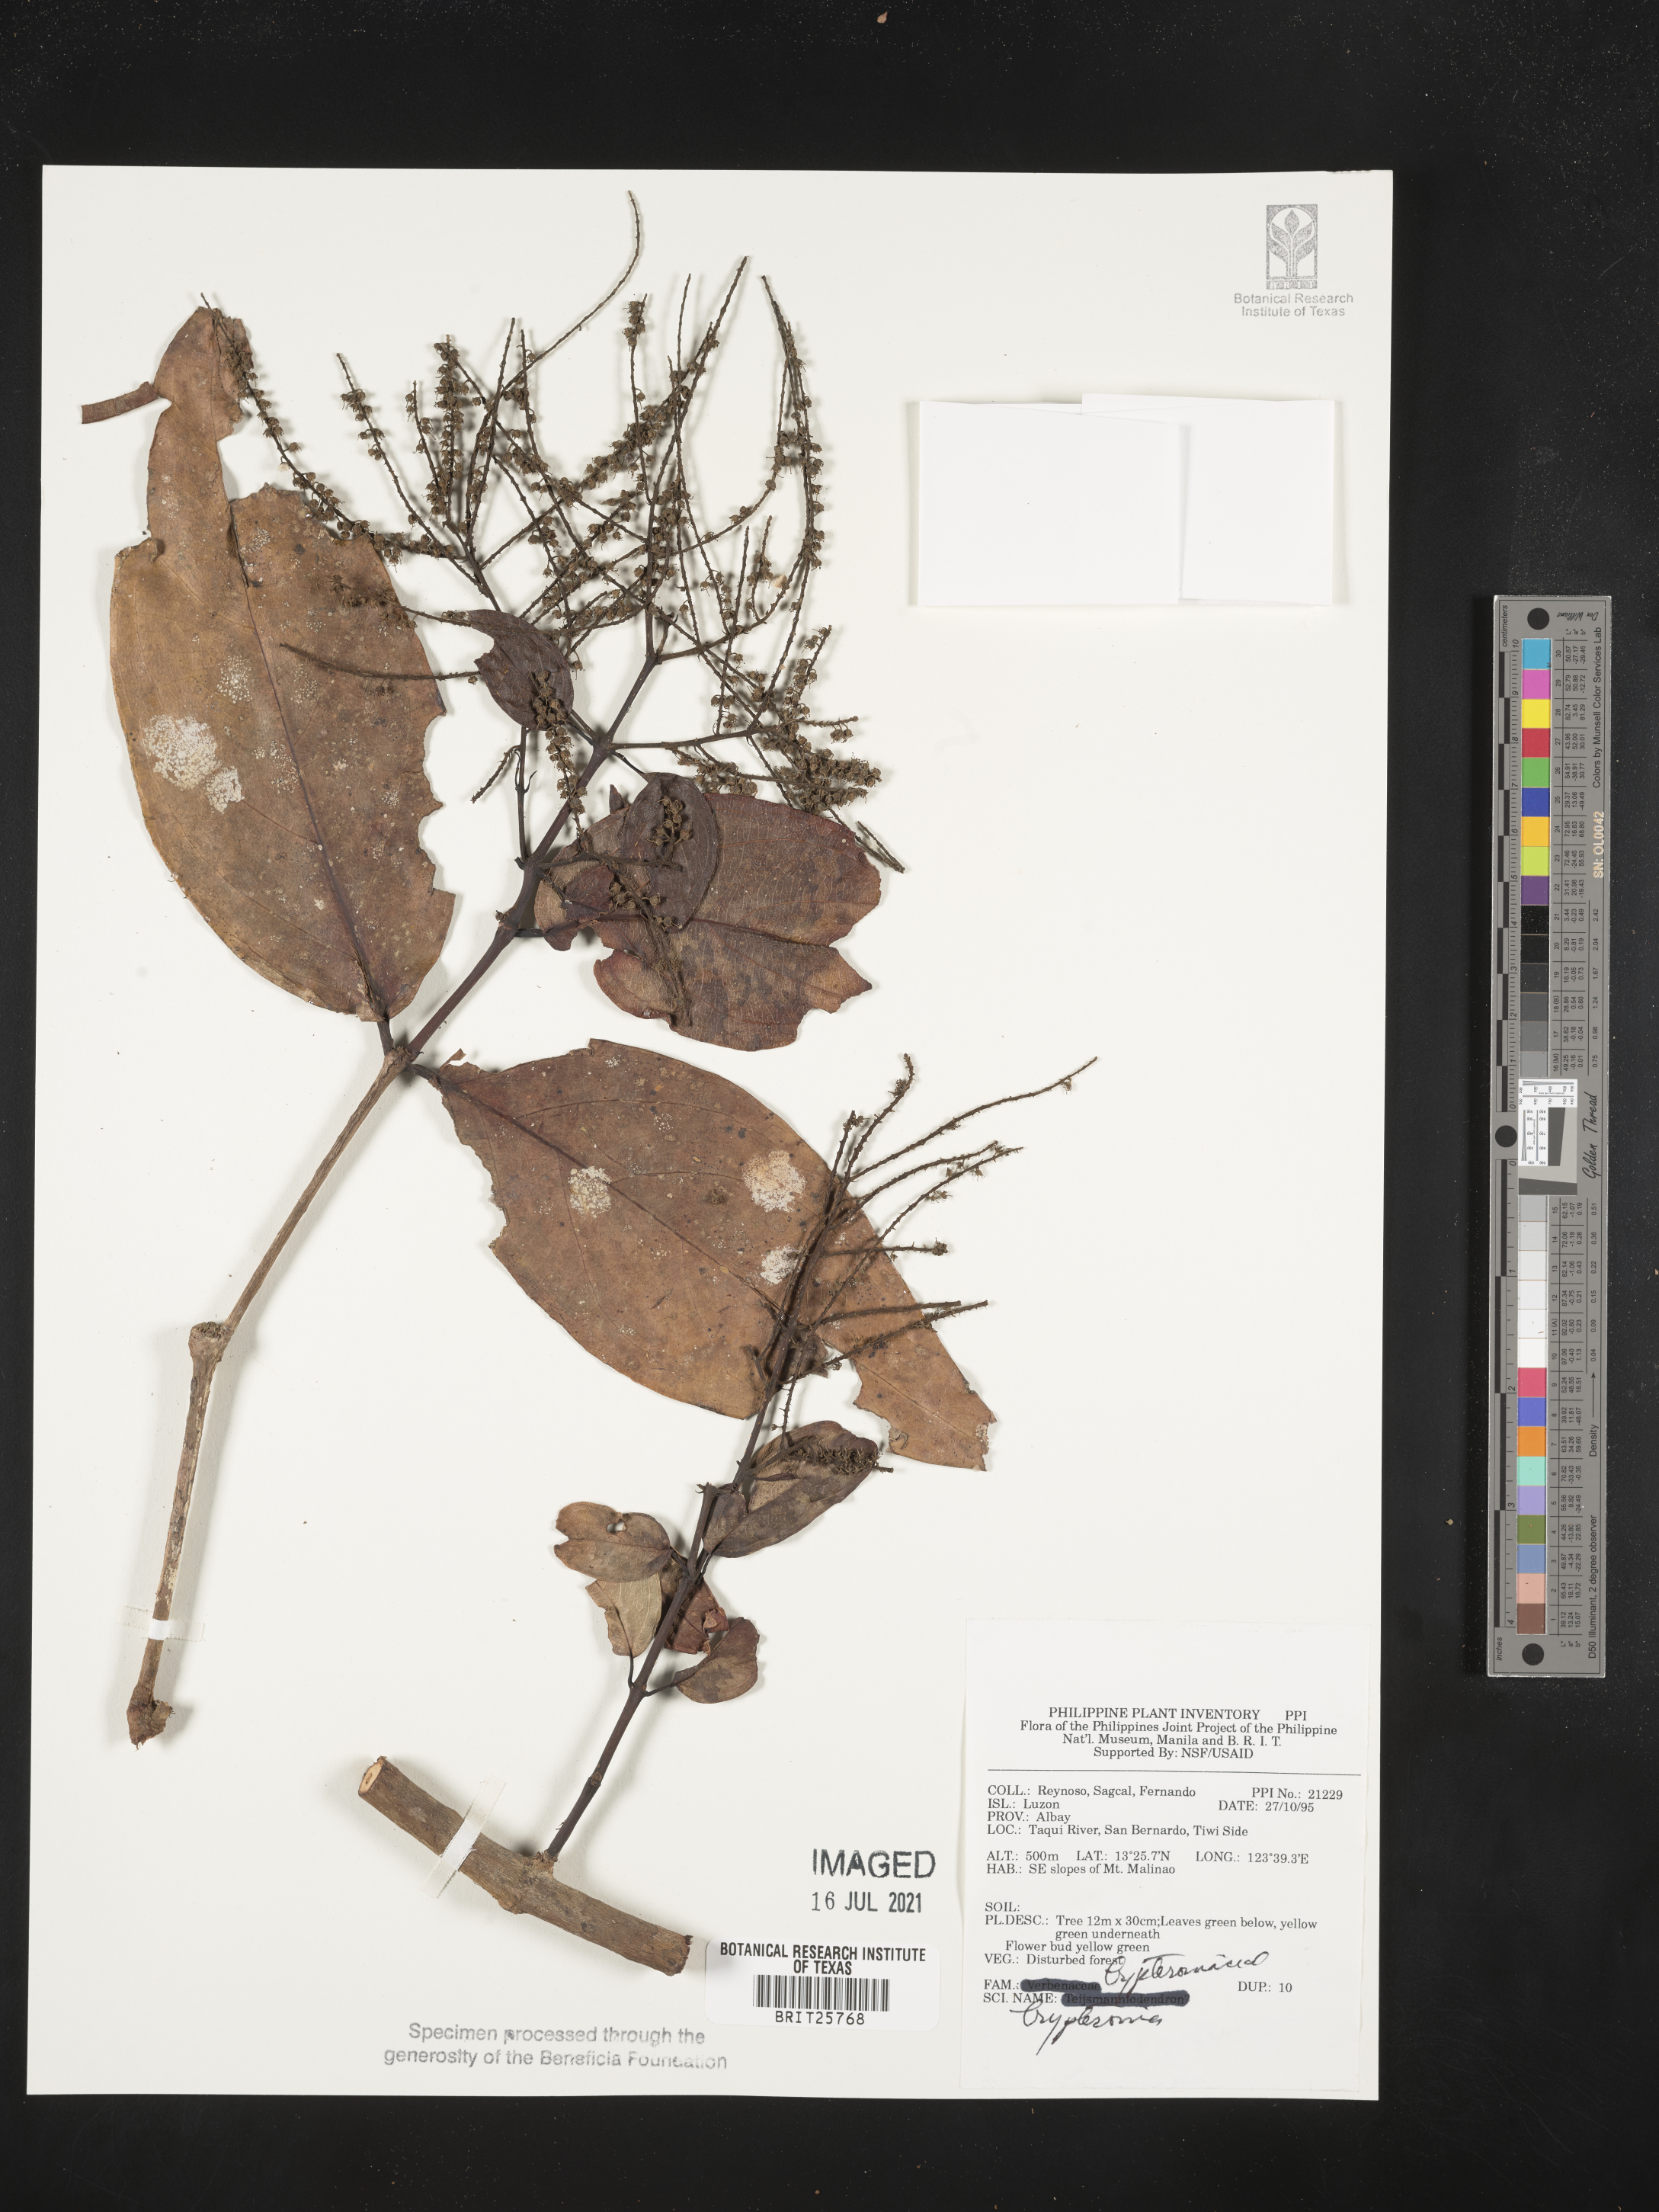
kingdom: Plantae
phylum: Tracheophyta
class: Magnoliopsida
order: Lamiales
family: Lamiaceae
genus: Teijsmanniodendron
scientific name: Teijsmanniodendron
